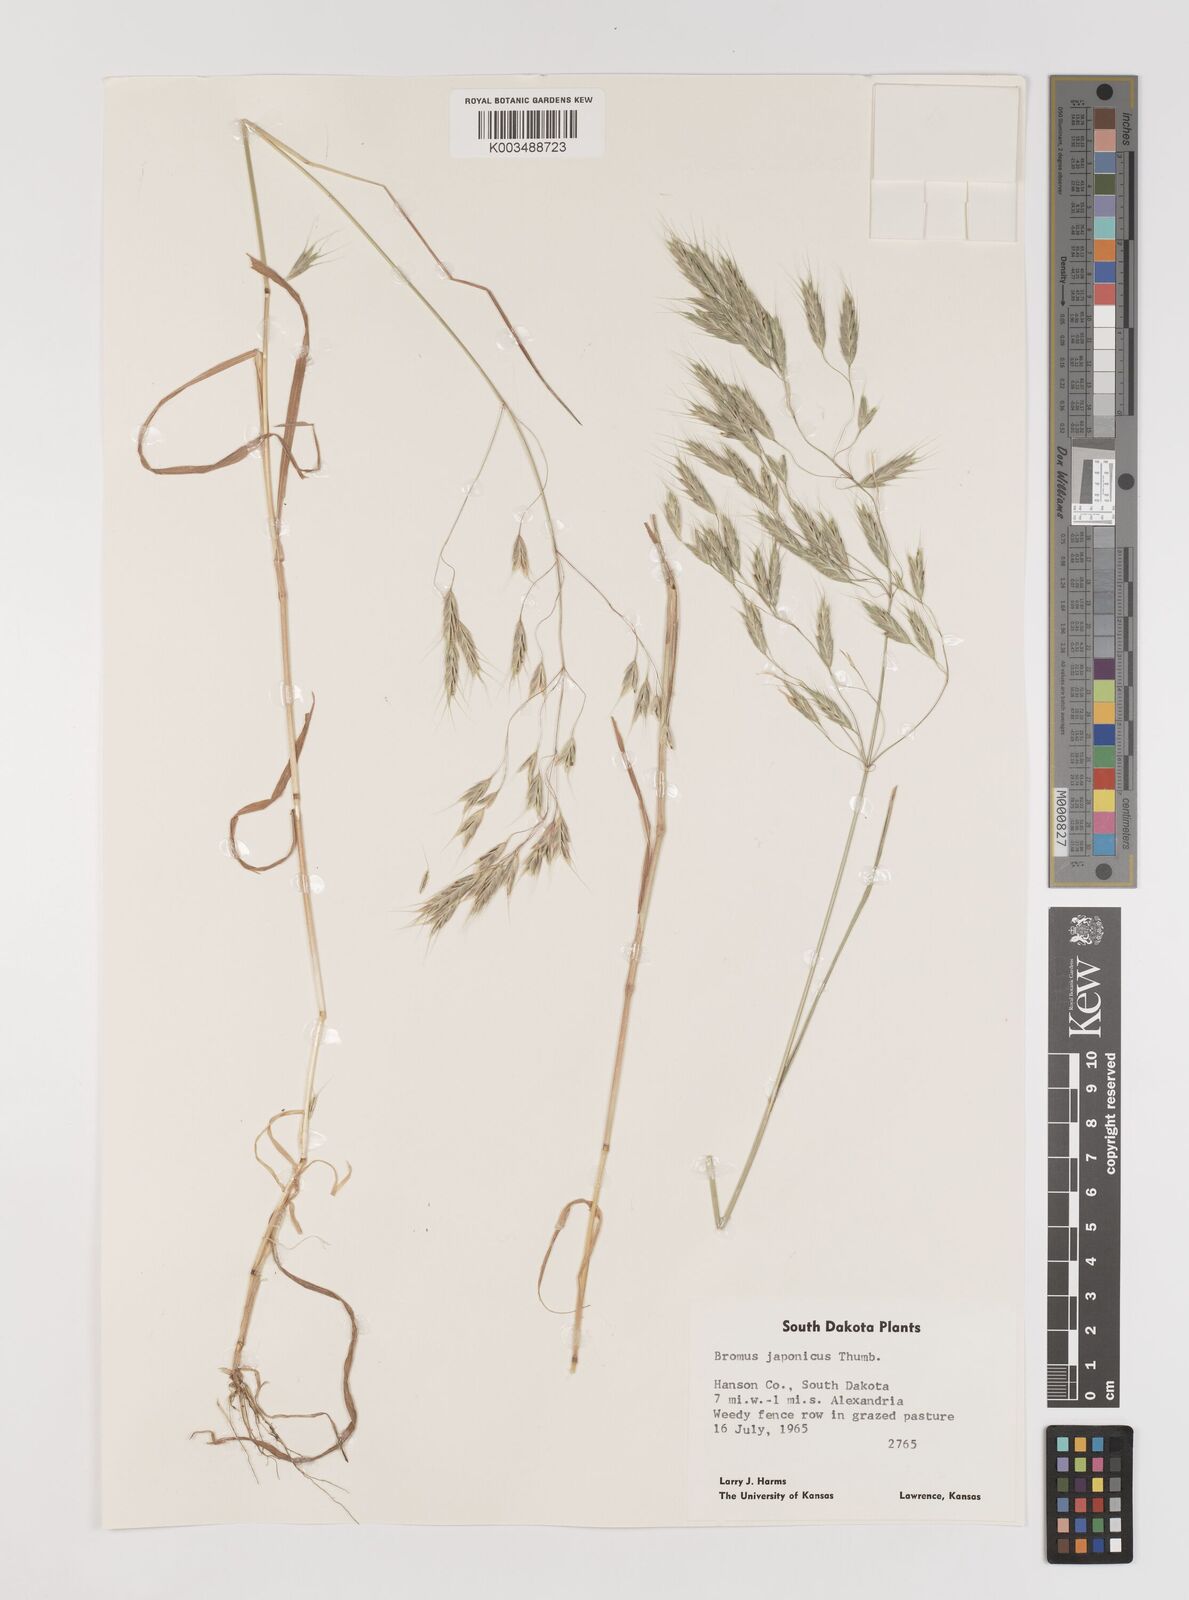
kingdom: Plantae
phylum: Tracheophyta
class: Liliopsida
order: Poales
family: Poaceae
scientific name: Poaceae
